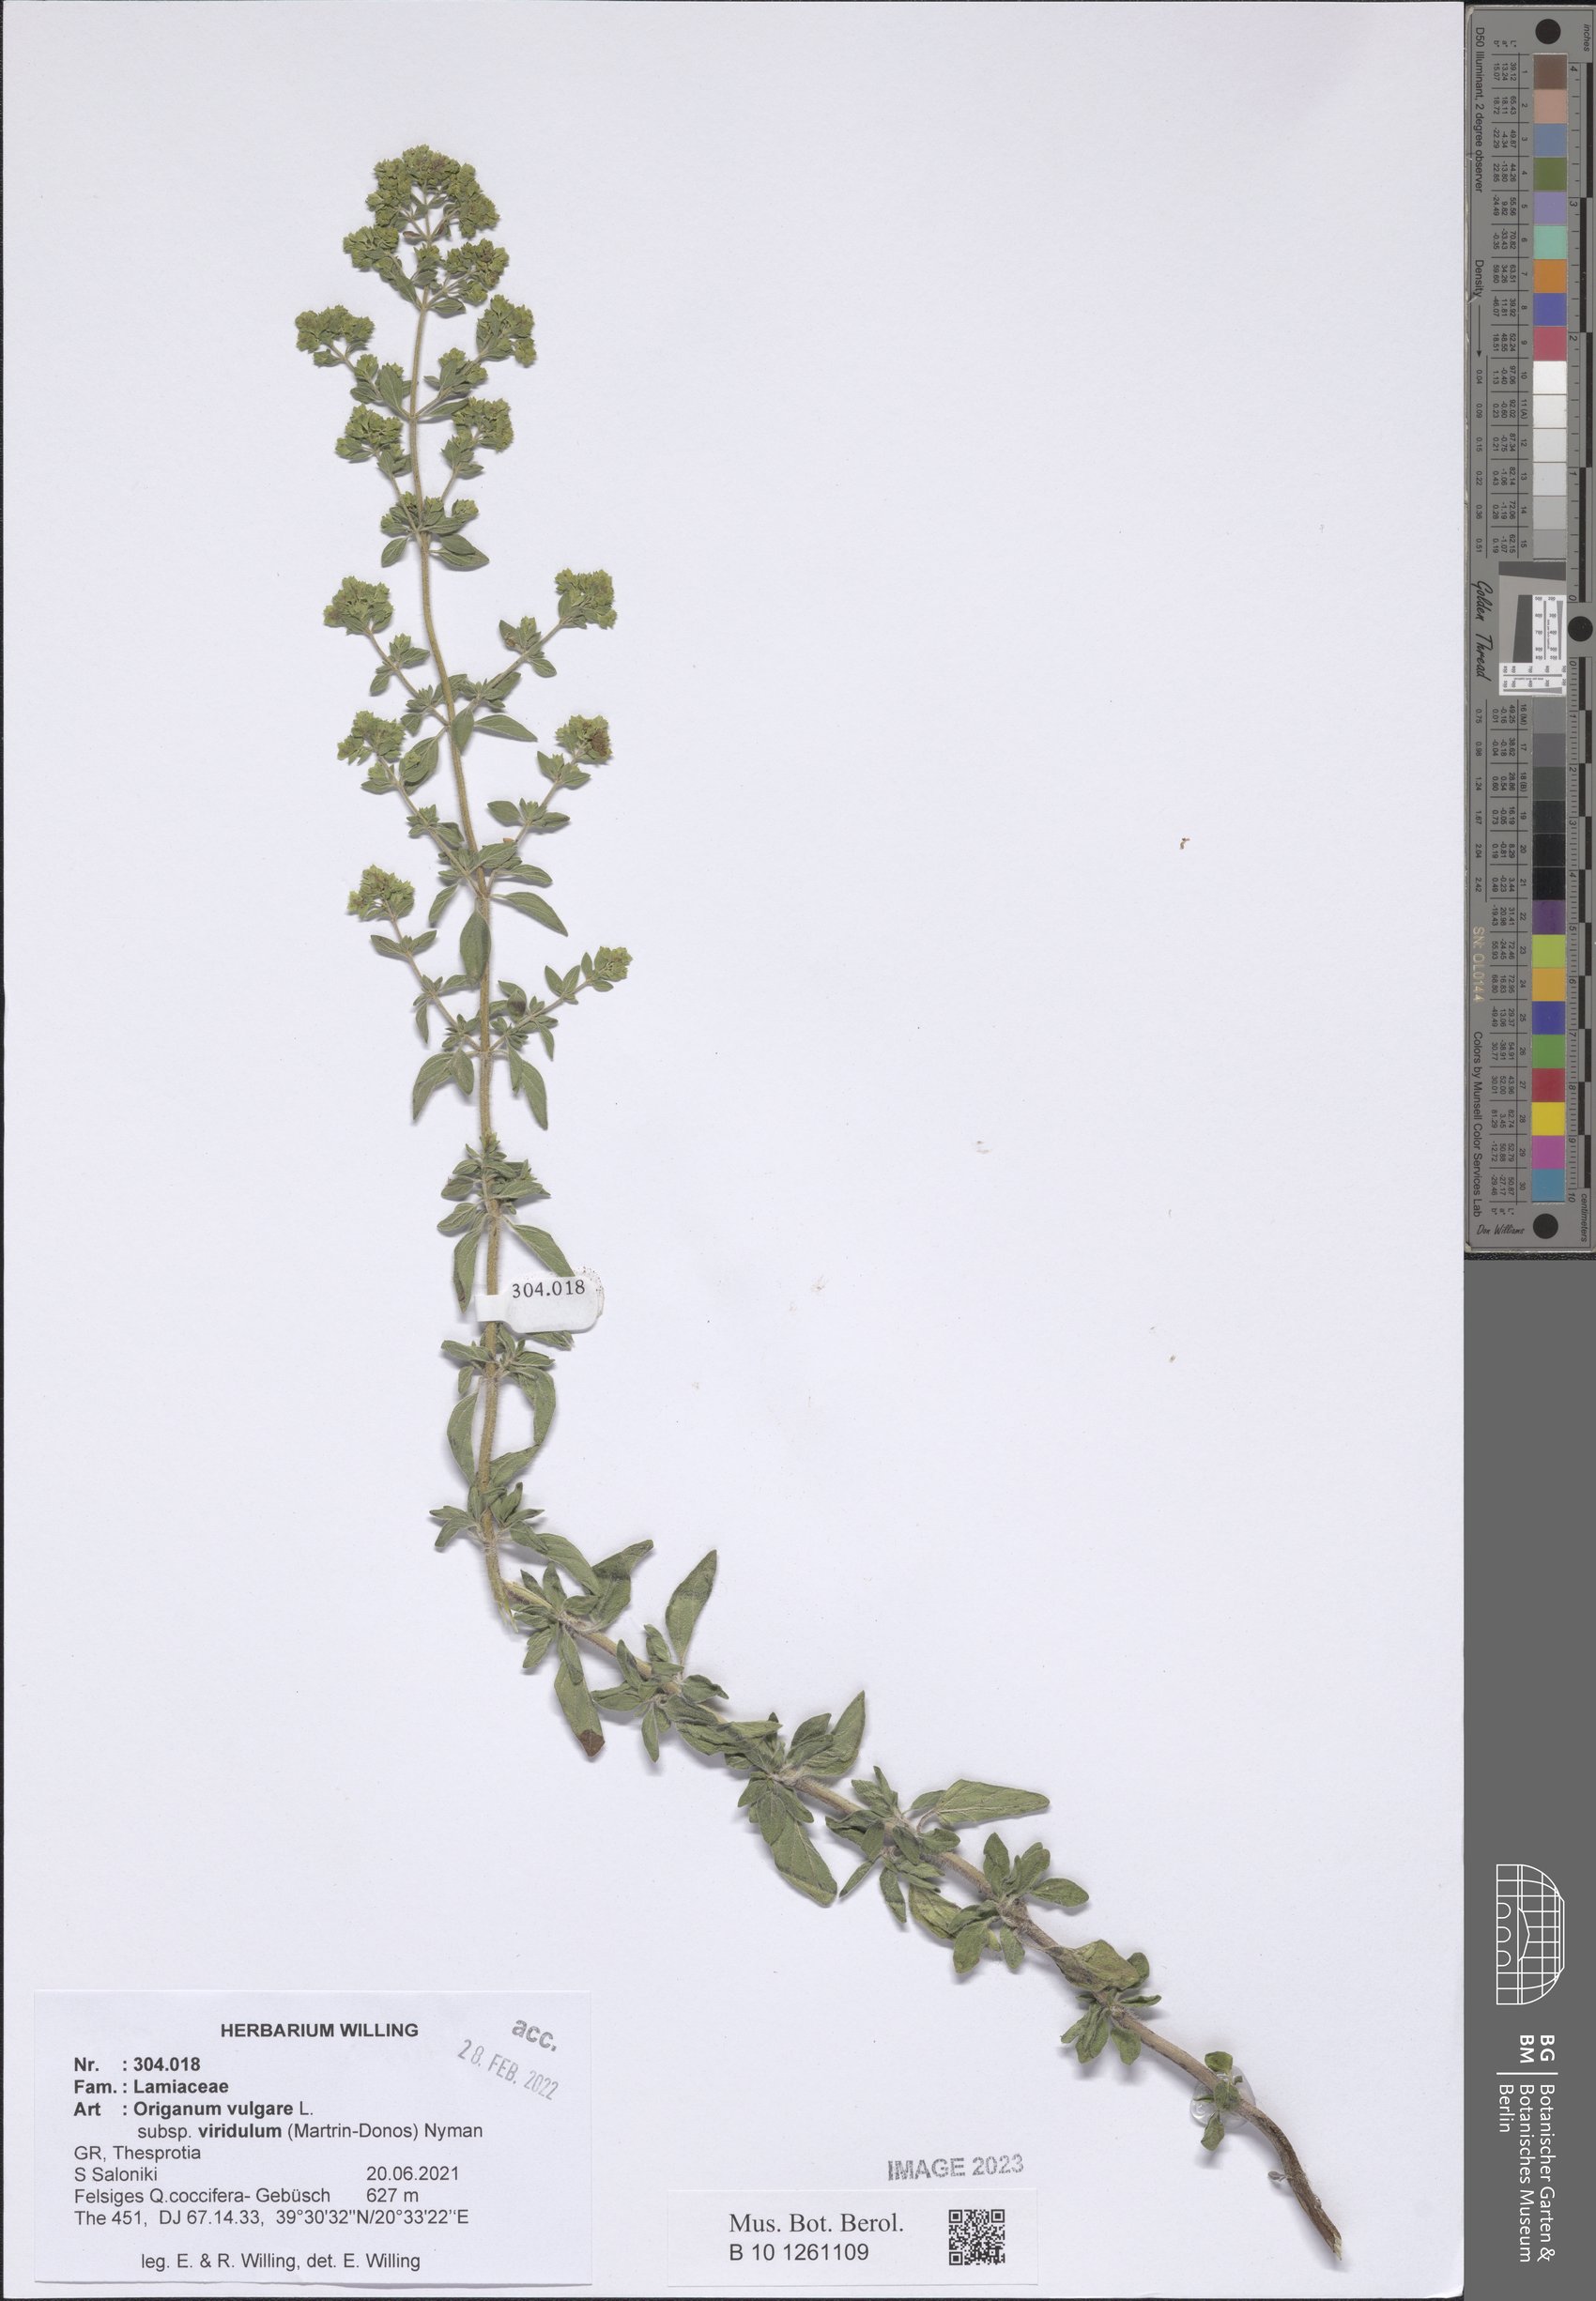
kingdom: Plantae
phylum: Tracheophyta
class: Magnoliopsida
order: Lamiales
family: Lamiaceae
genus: Origanum
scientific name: Origanum vulgare
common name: Wild marjoram
